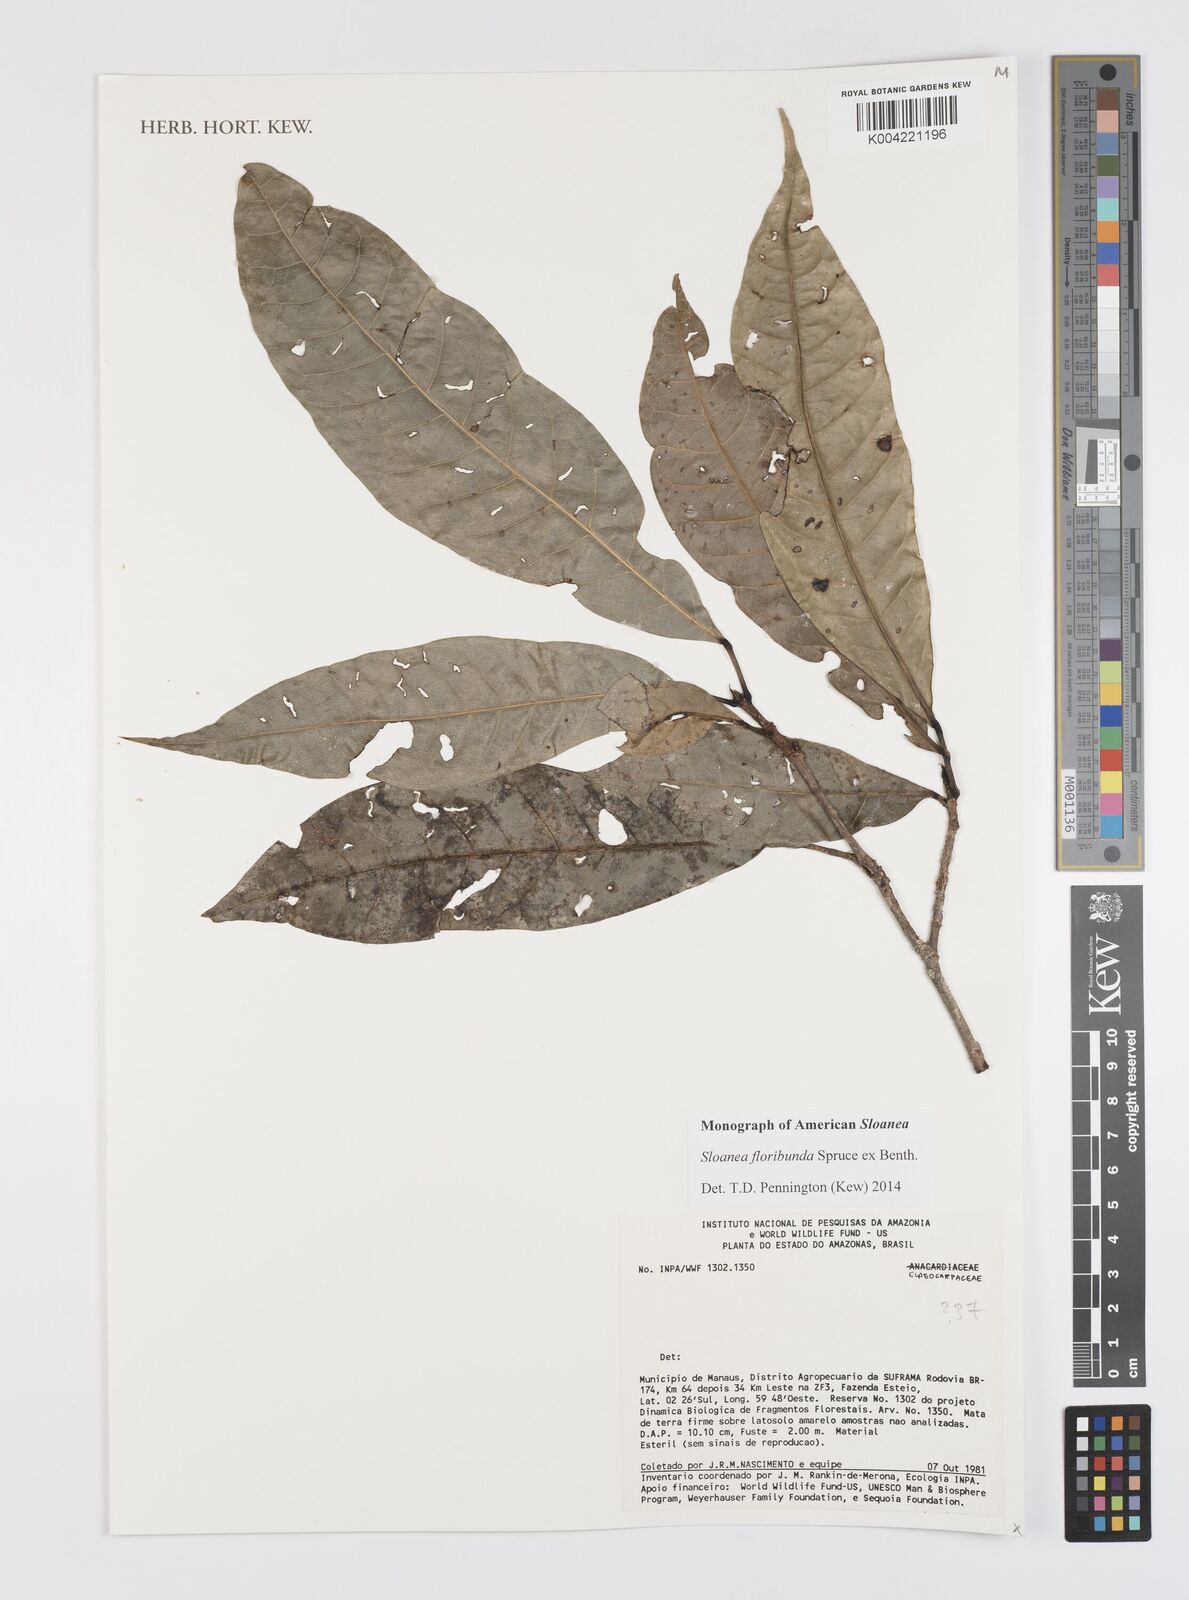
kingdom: Plantae
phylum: Tracheophyta
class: Magnoliopsida
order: Oxalidales
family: Elaeocarpaceae
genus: Sloanea
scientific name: Sloanea floribunda
